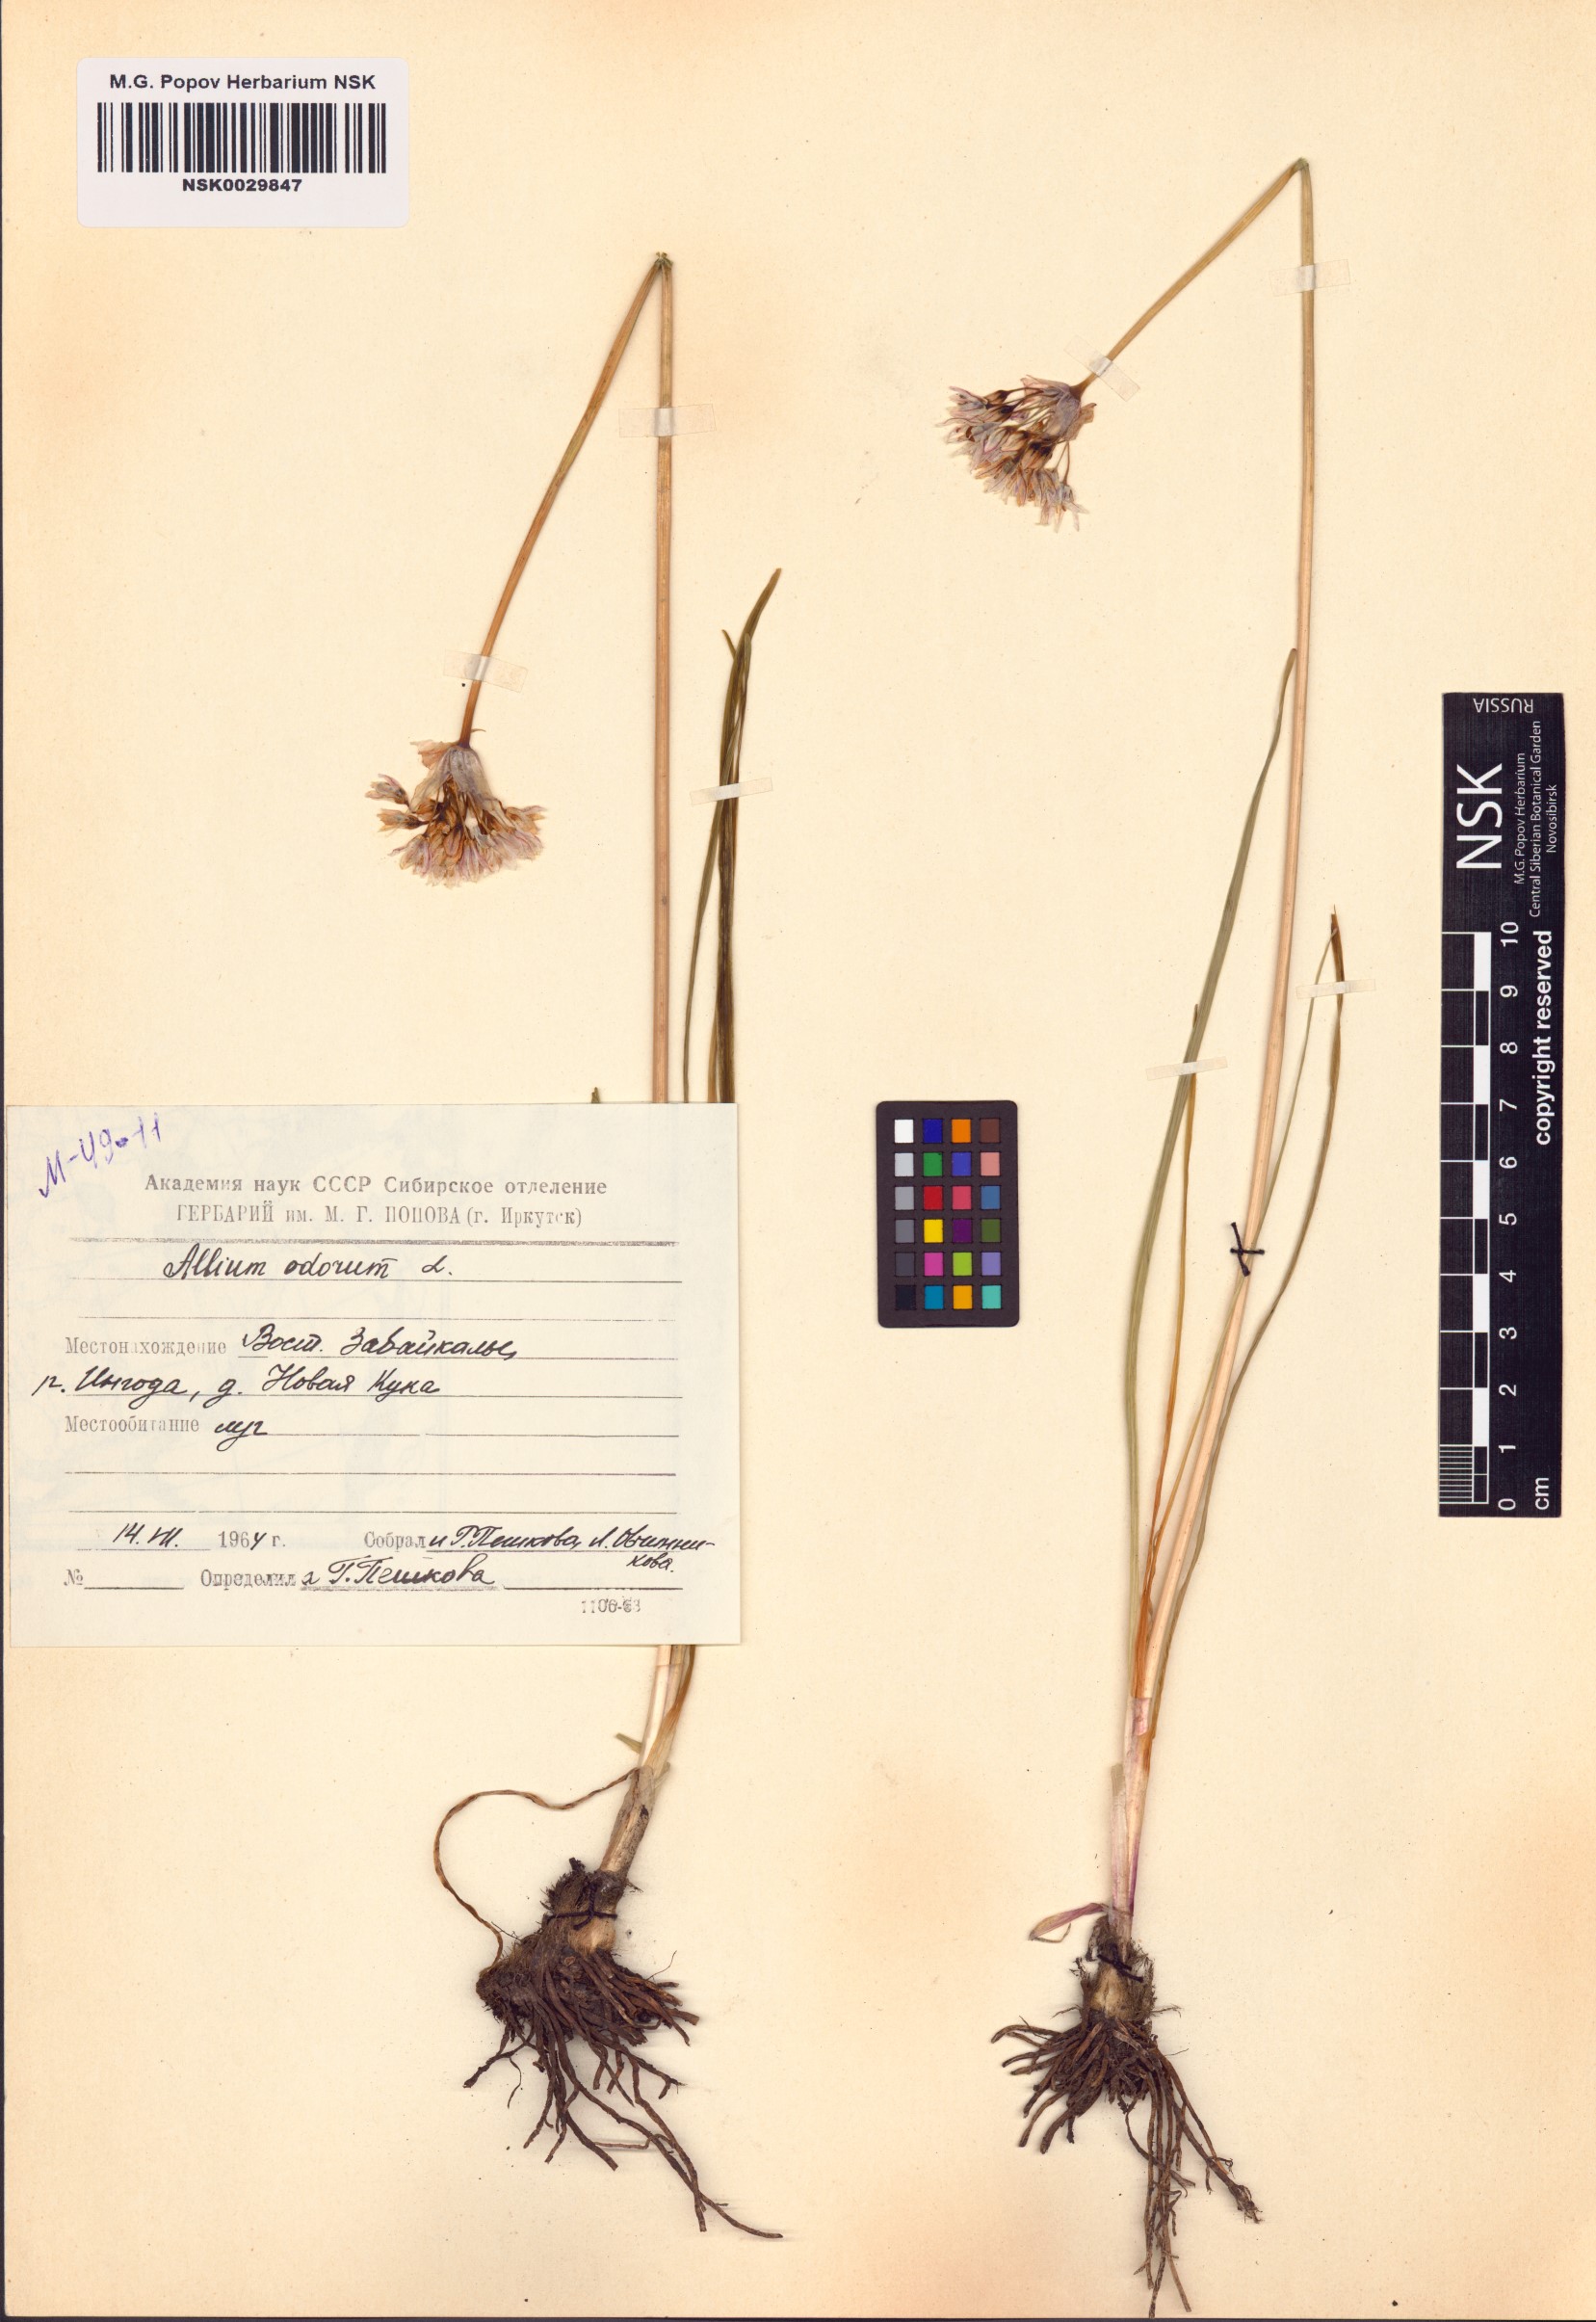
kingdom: Plantae
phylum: Tracheophyta
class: Liliopsida
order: Asparagales
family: Amaryllidaceae
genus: Allium
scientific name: Allium ramosum
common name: Fragrant garlic
